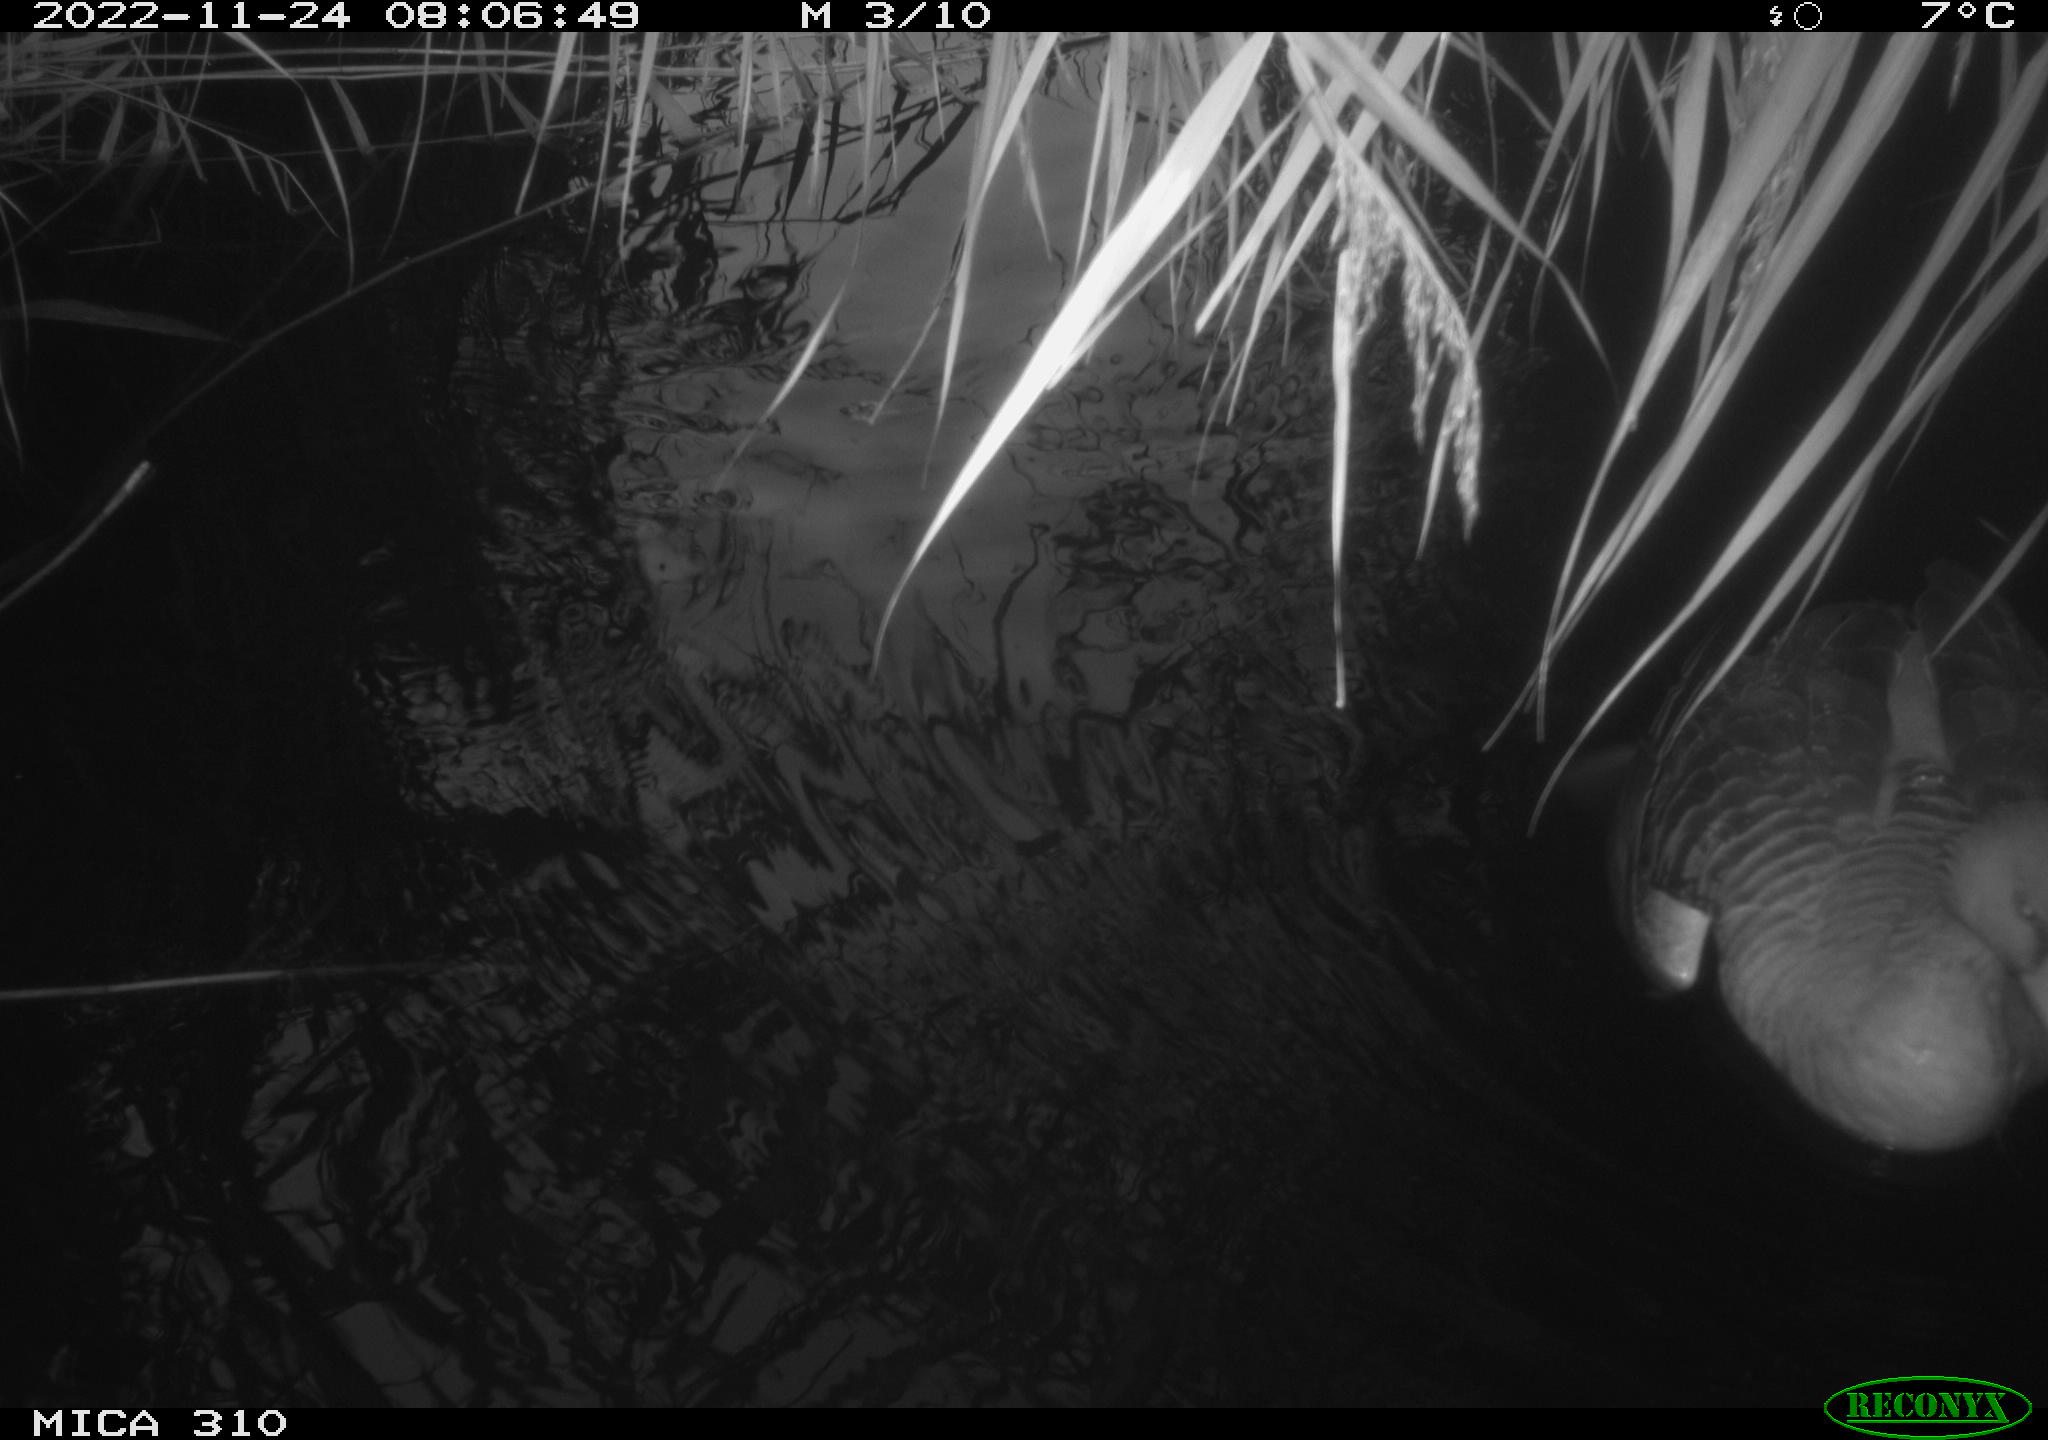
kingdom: Animalia
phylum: Chordata
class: Aves
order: Anseriformes
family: Anatidae
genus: Anser
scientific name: Anser anser
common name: Greylag goose
